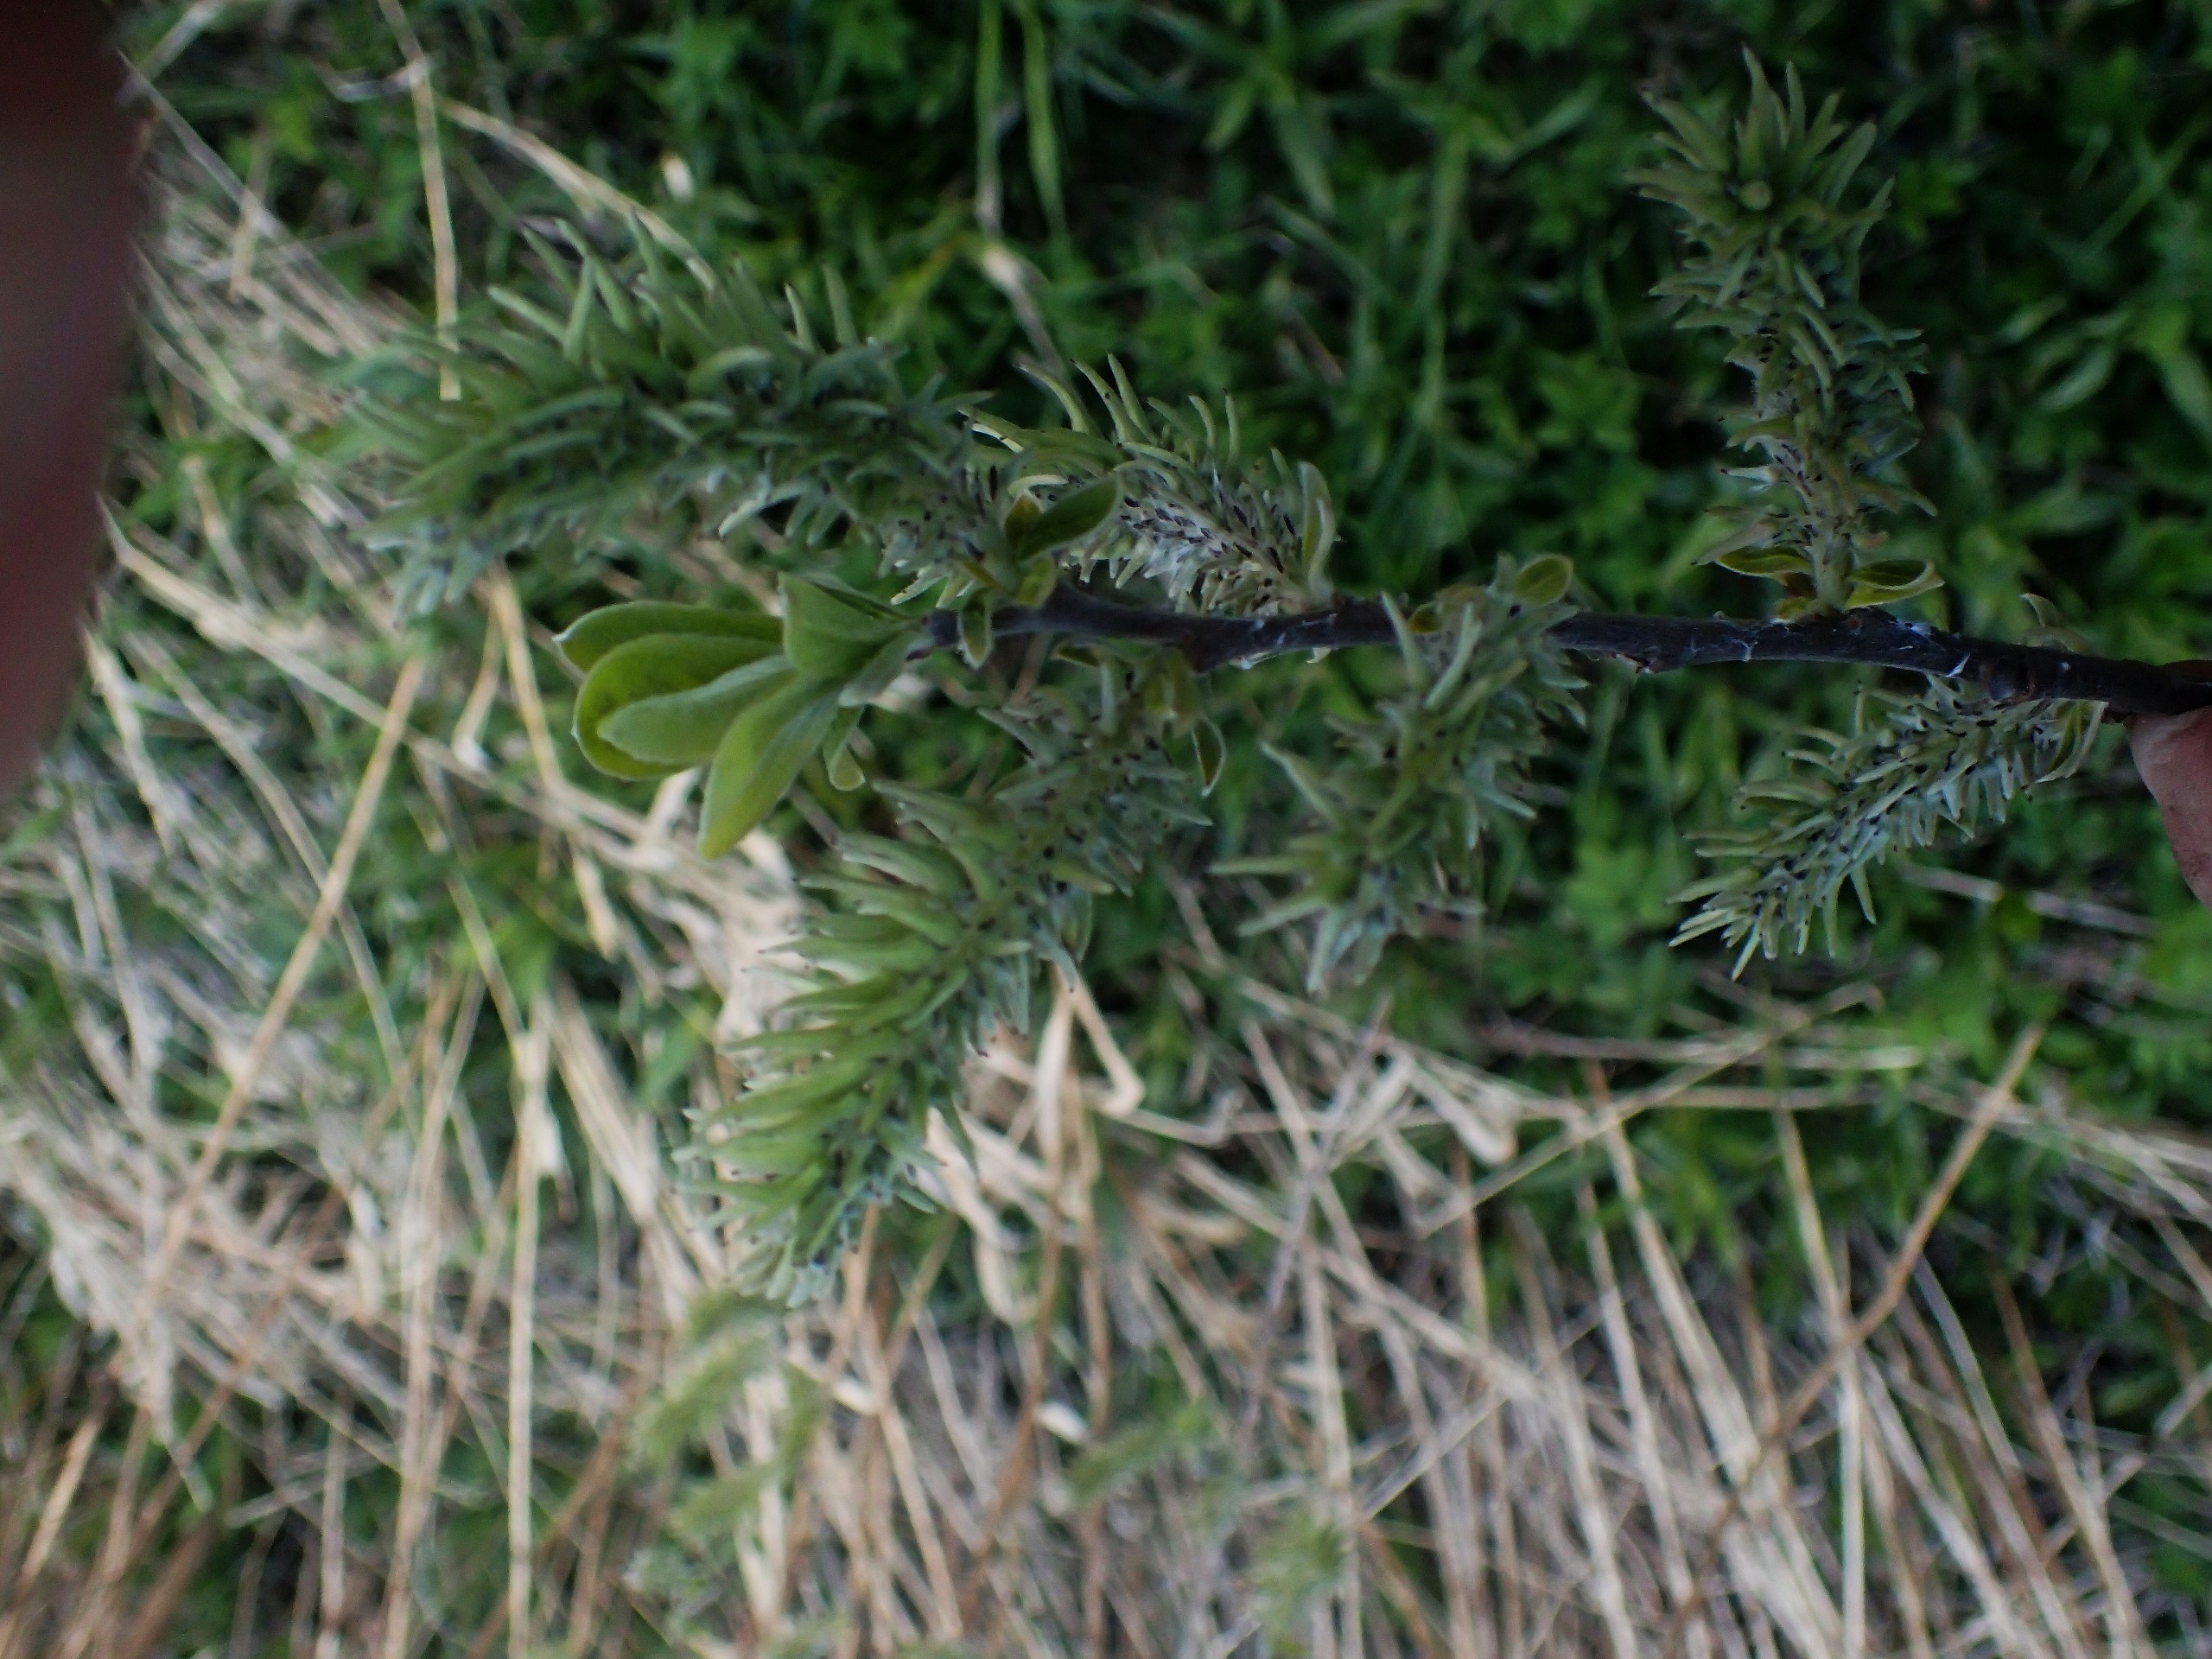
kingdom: Plantae
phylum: Tracheophyta
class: Magnoliopsida
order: Malpighiales
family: Salicaceae
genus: Salix
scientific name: Salix cinerea
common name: Grå-pil
